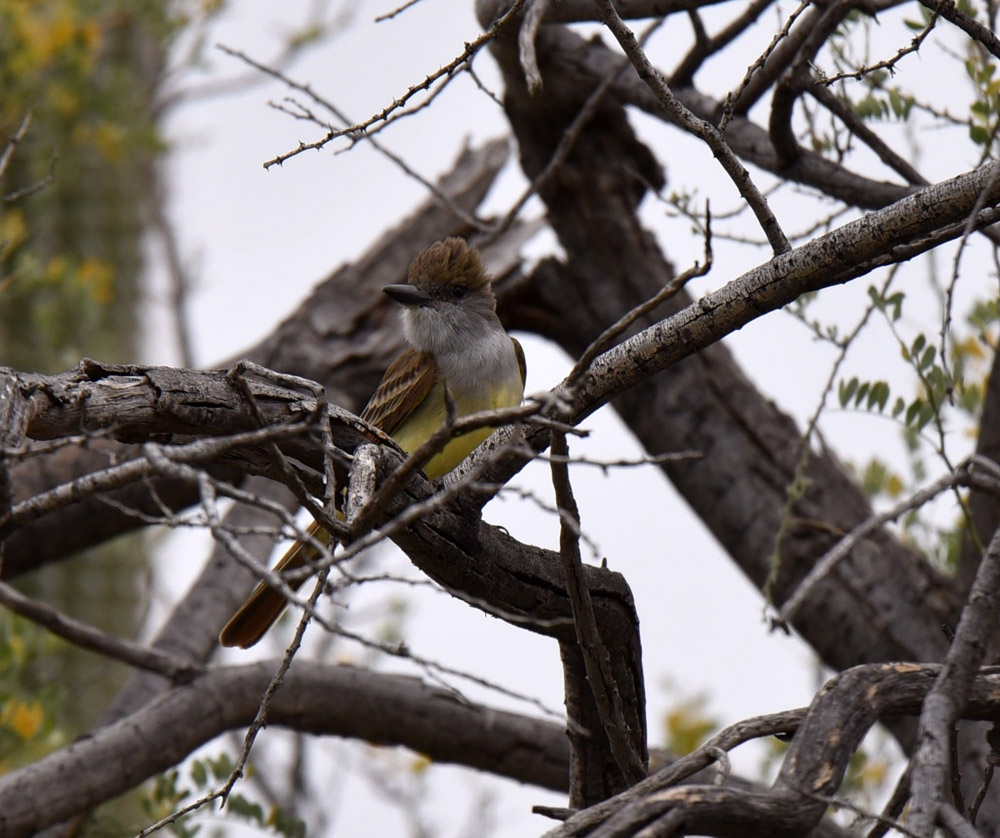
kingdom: Animalia
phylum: Chordata
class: Aves
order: Passeriformes
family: Tyrannidae
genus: Myiarchus
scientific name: Myiarchus tyrannulus
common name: Brown-crested flycatcher
